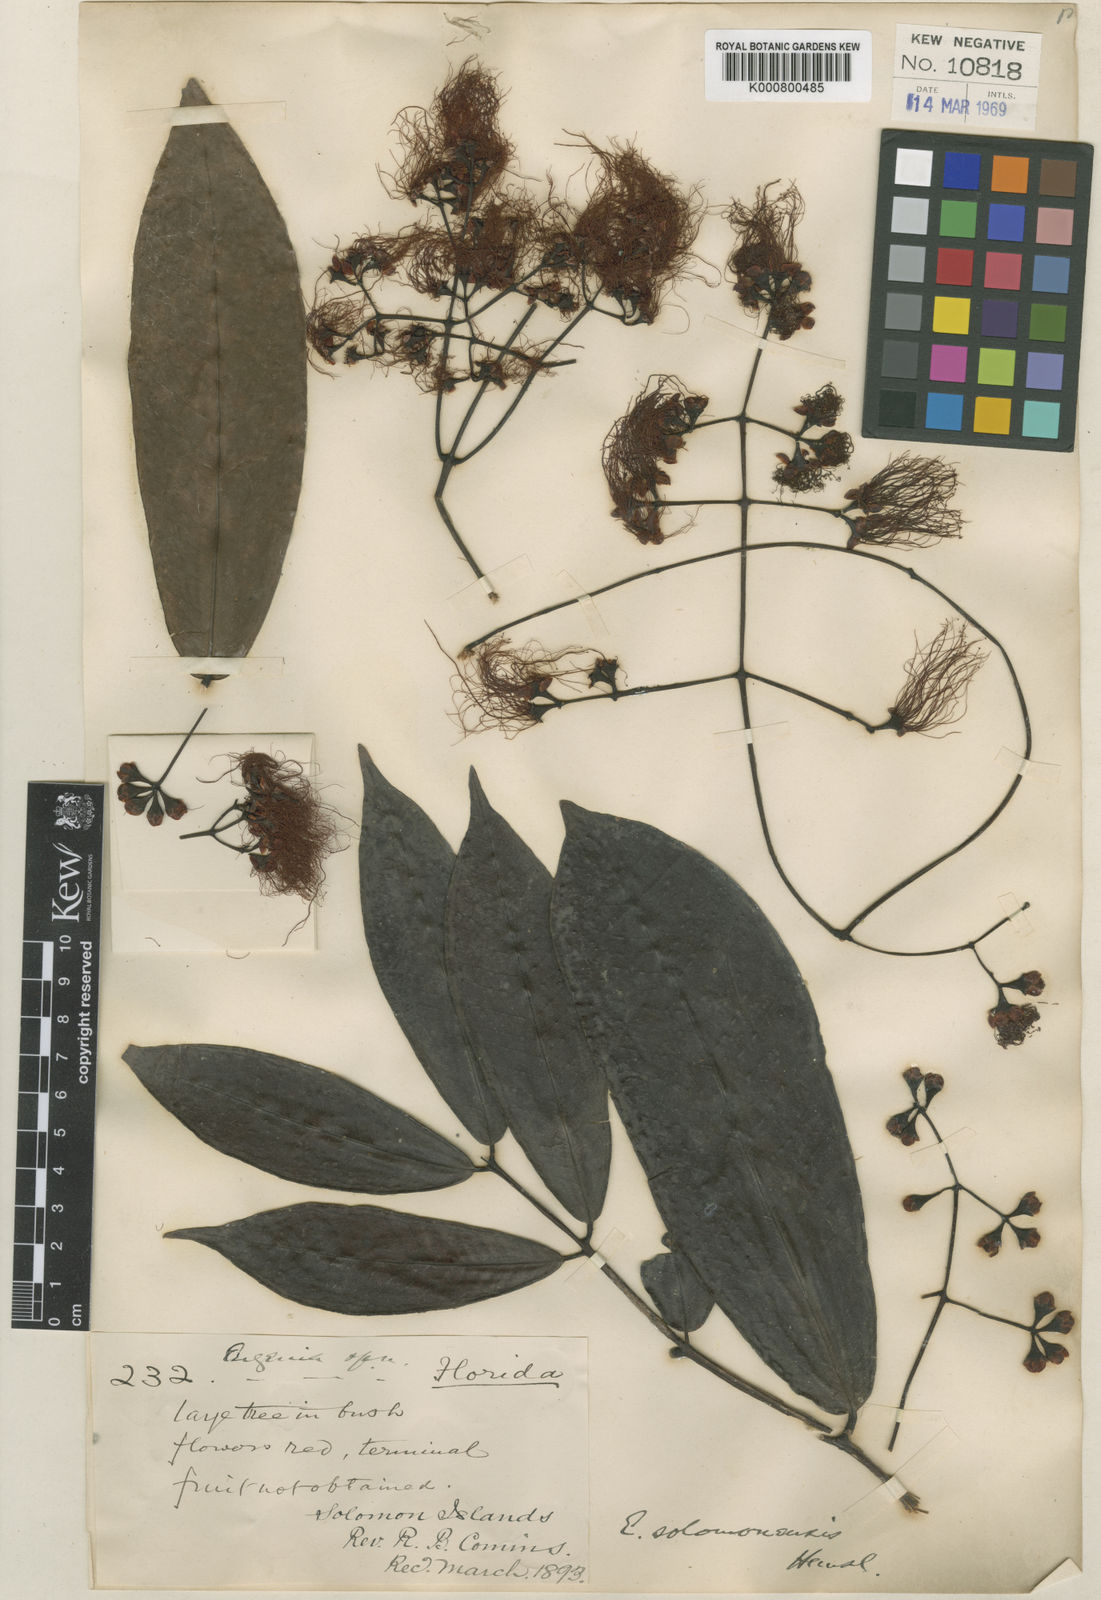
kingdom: Plantae
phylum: Tracheophyta
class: Magnoliopsida
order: Myrtales
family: Myrtaceae
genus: Syzygium
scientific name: Syzygium salomonense
